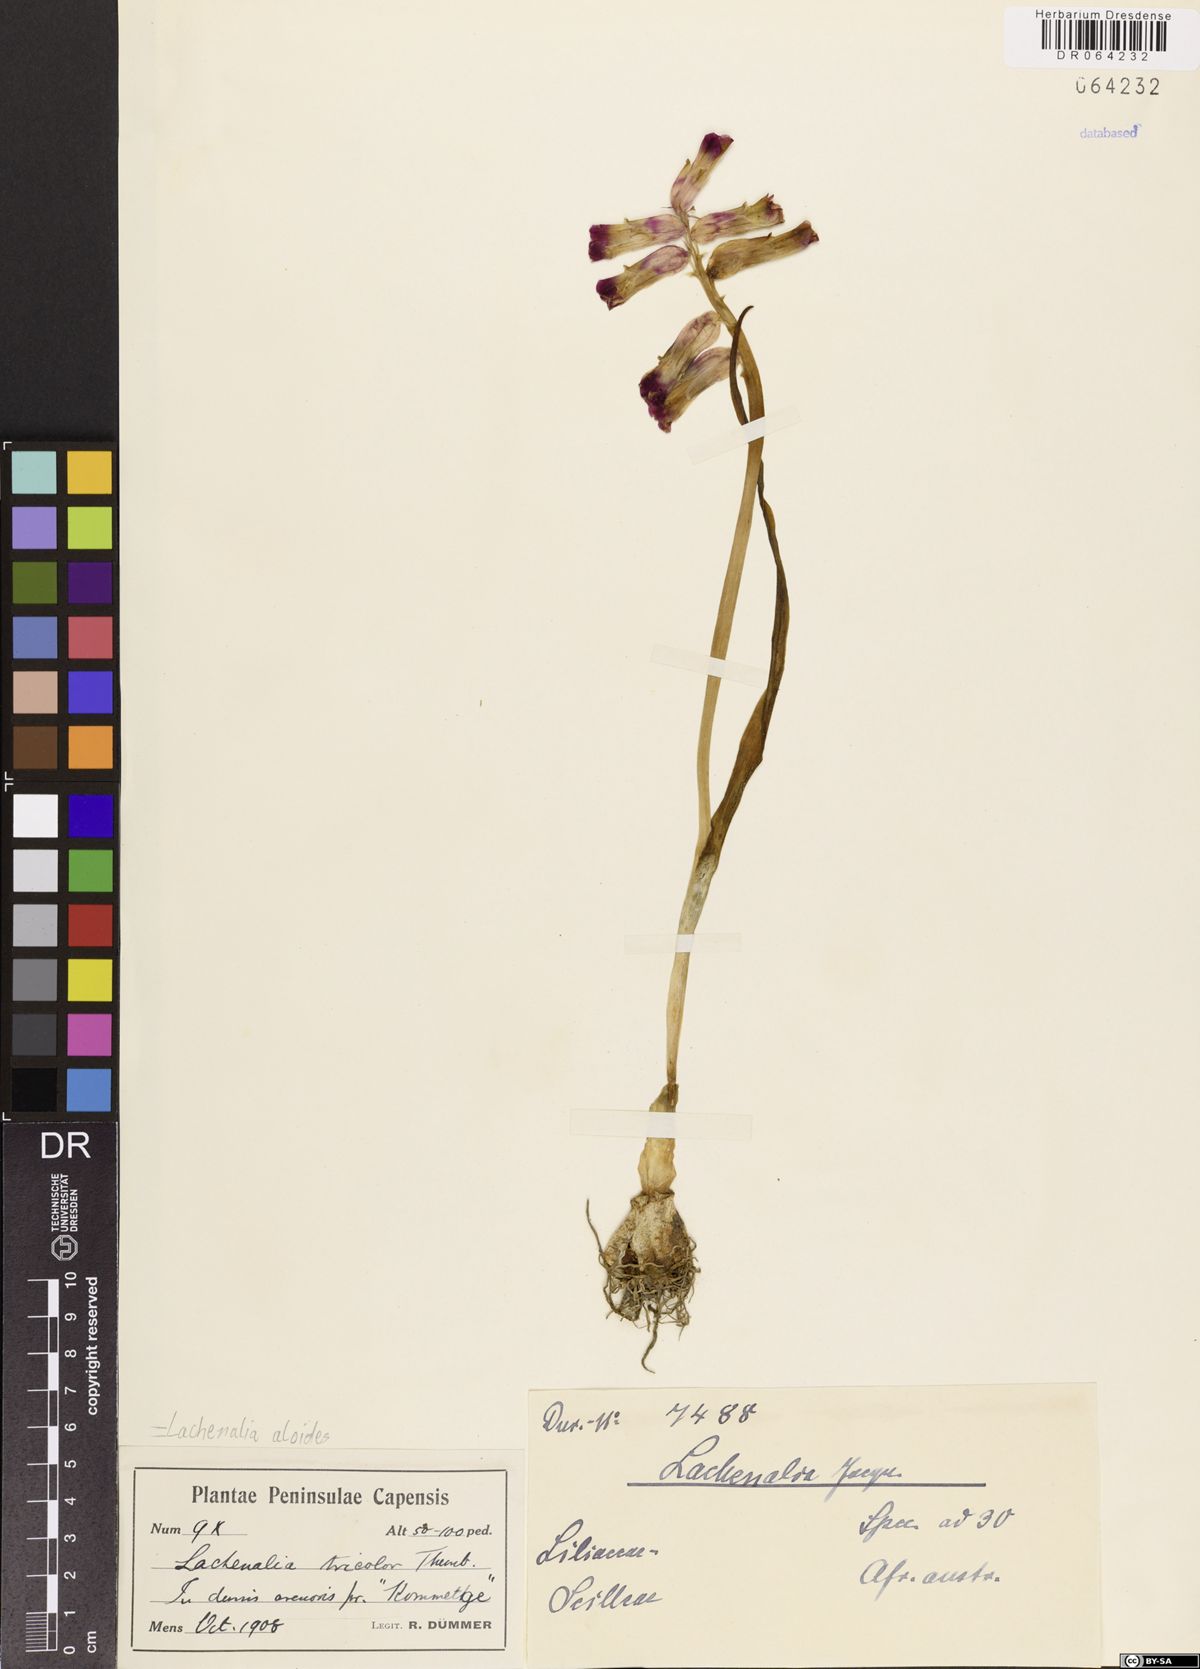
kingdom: Plantae
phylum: Tracheophyta
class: Liliopsida
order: Asparagales
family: Asparagaceae
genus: Lachenalia
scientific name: Lachenalia aloides
